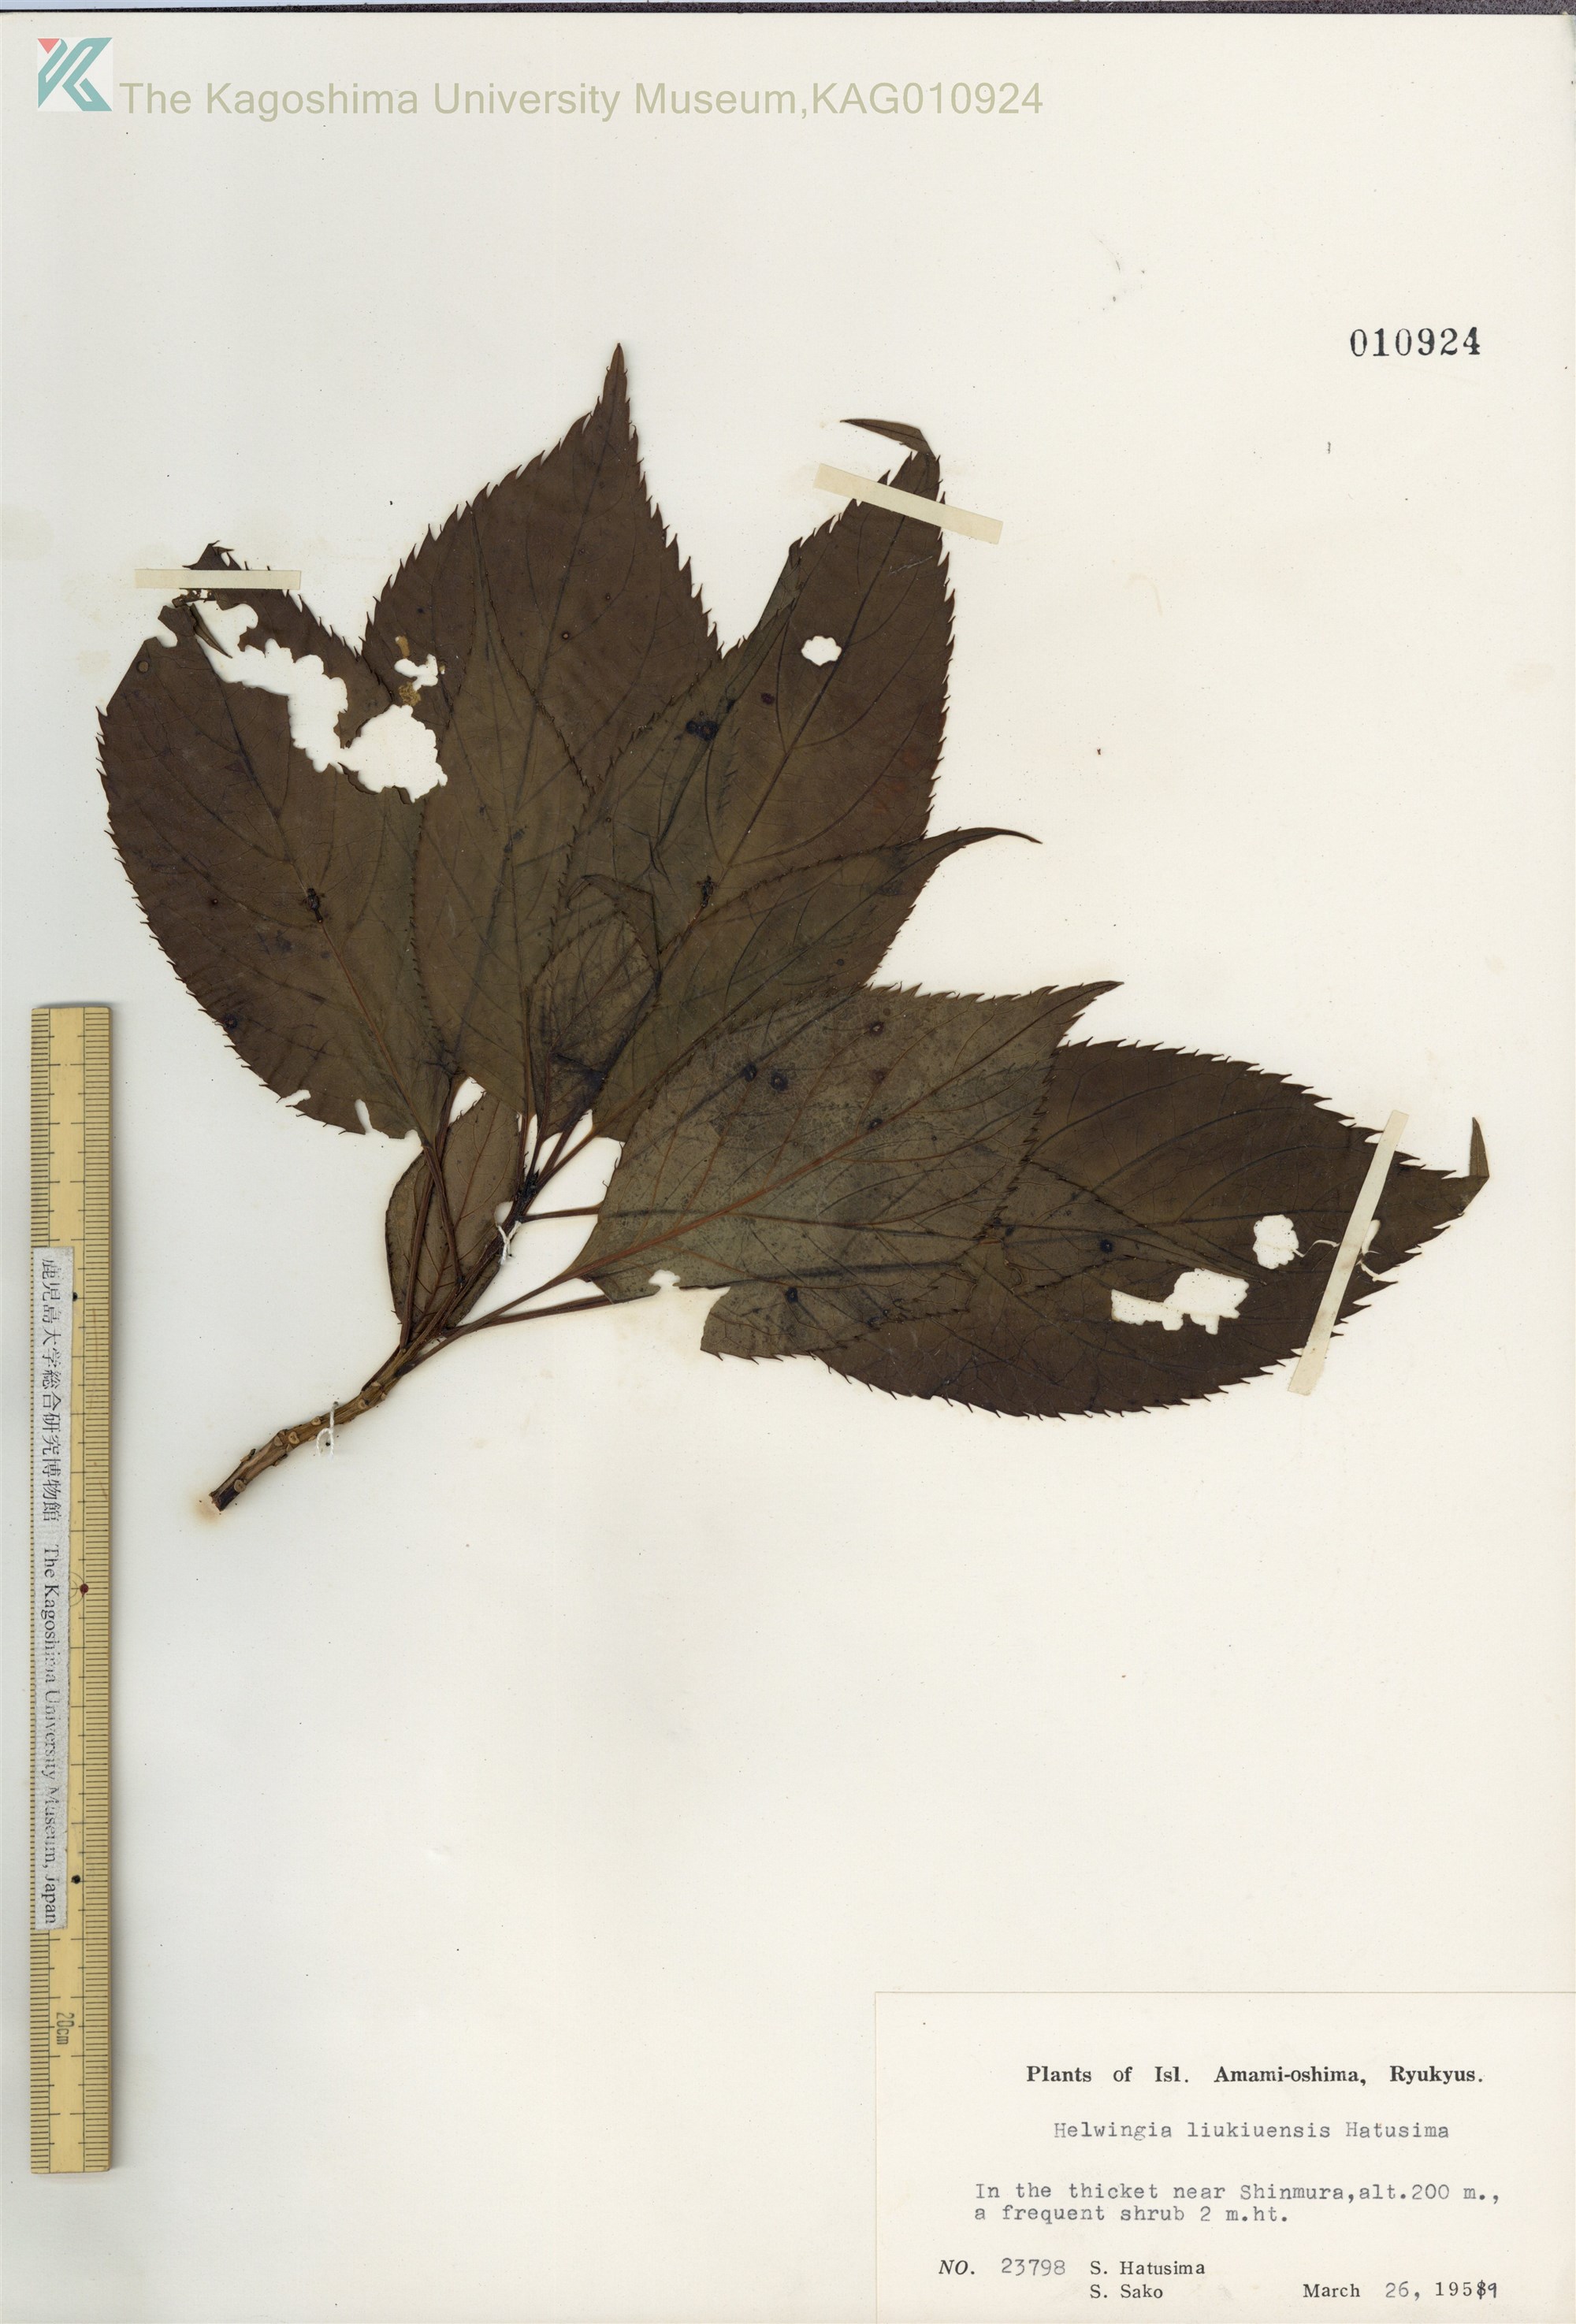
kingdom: Plantae
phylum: Tracheophyta
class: Magnoliopsida
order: Aquifoliales
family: Helwingiaceae
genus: Helwingia
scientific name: Helwingia japonica
